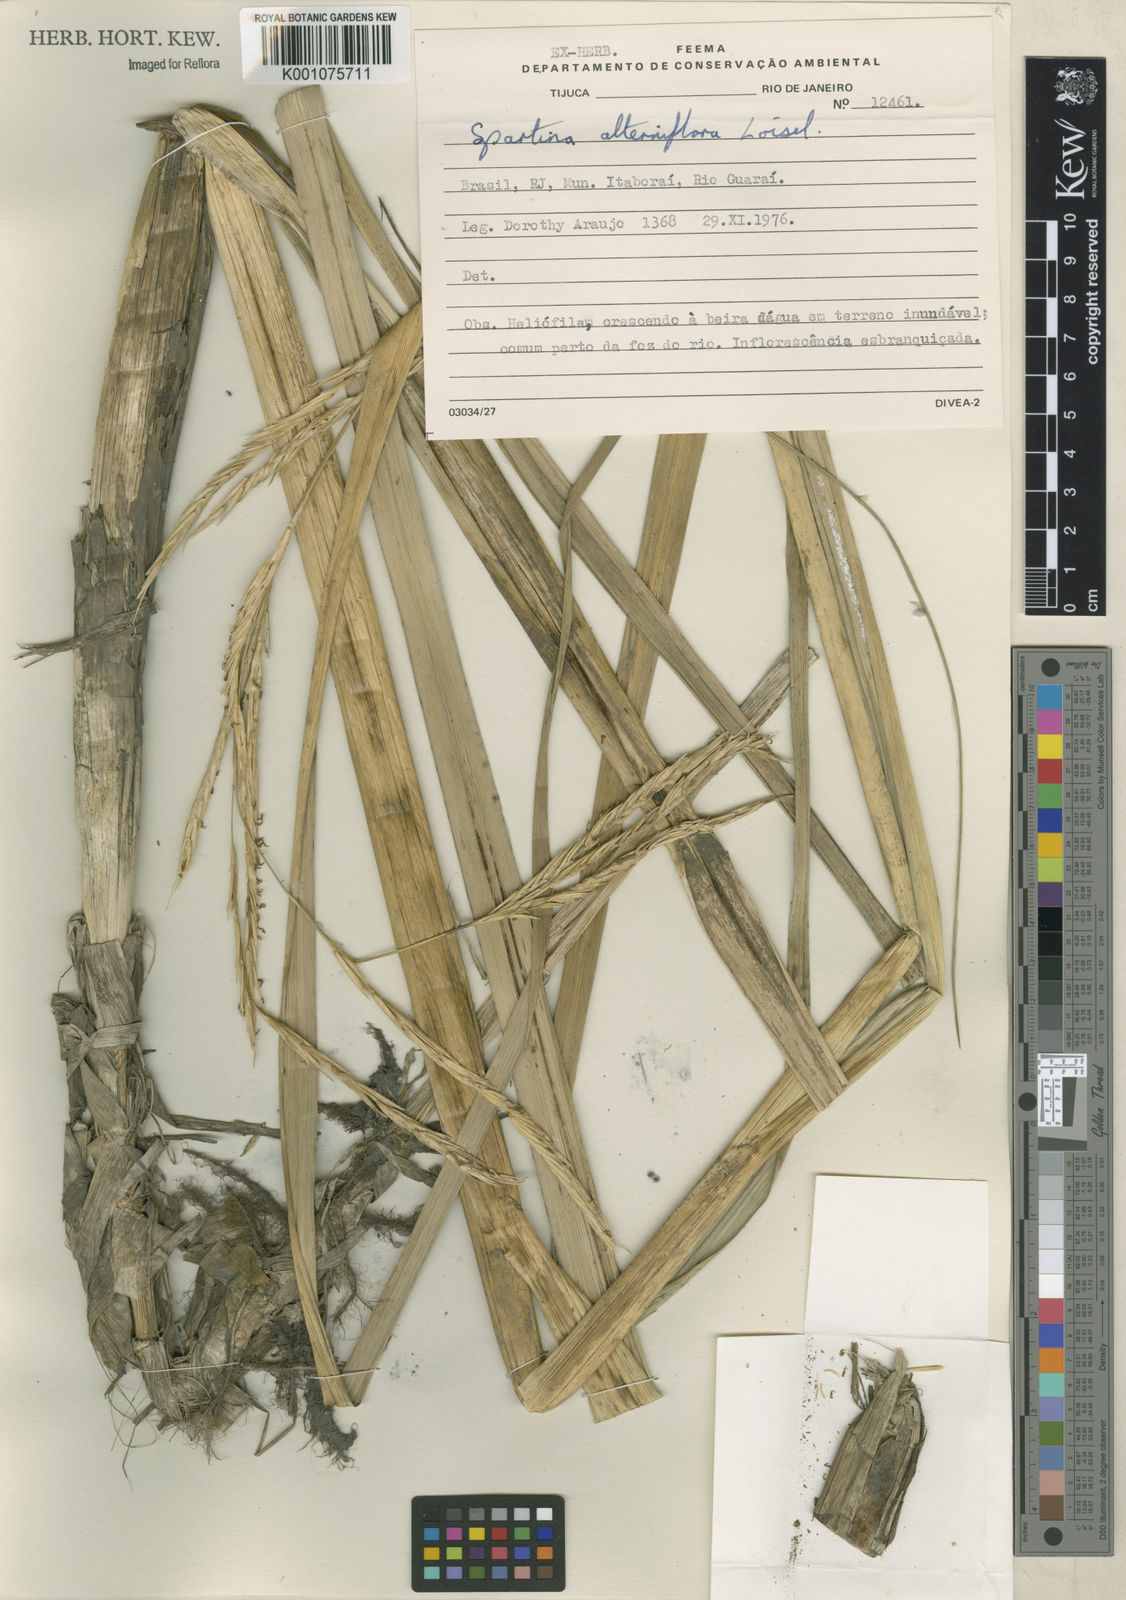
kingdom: Animalia
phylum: Mollusca
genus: Spartina
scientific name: Spartina
